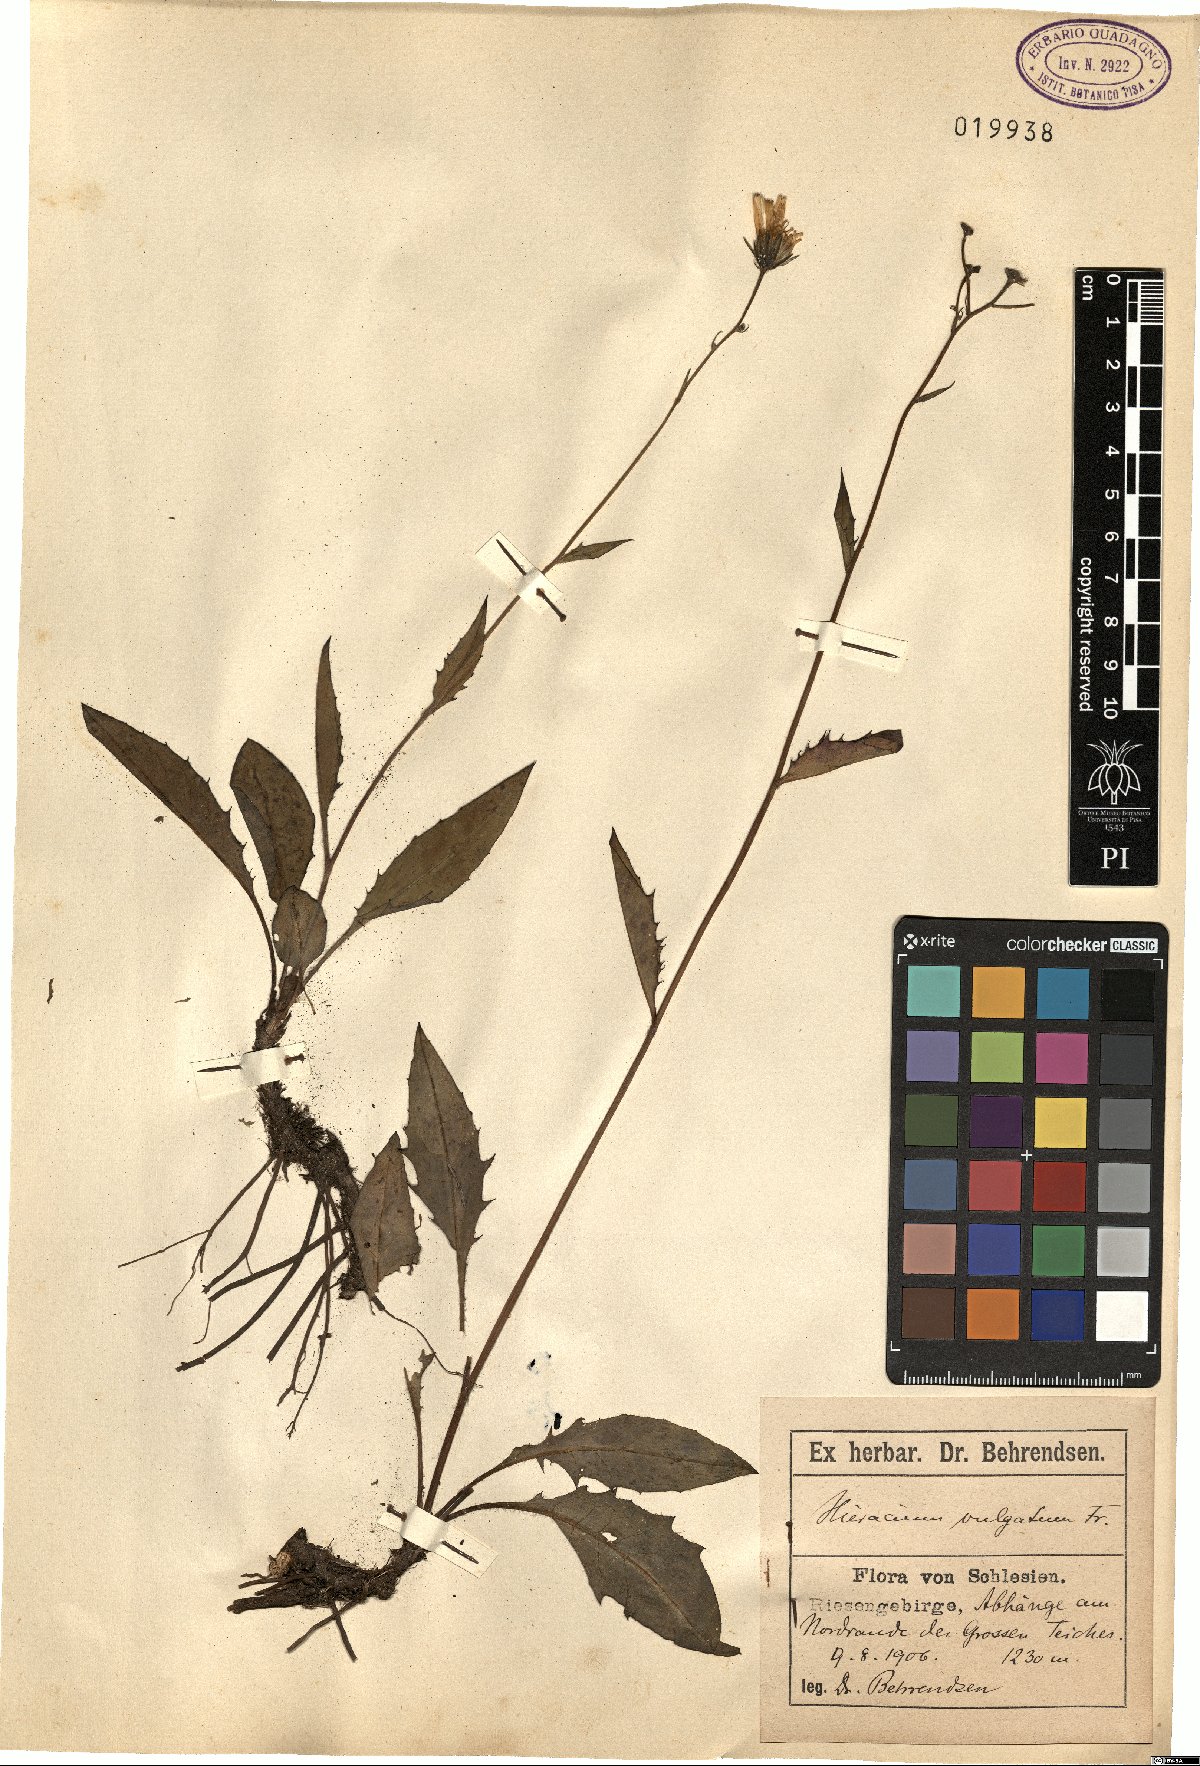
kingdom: Plantae
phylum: Tracheophyta
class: Magnoliopsida
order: Asterales
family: Asteraceae
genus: Hieracium
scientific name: Hieracium lachenalii
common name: Common hawkweed
